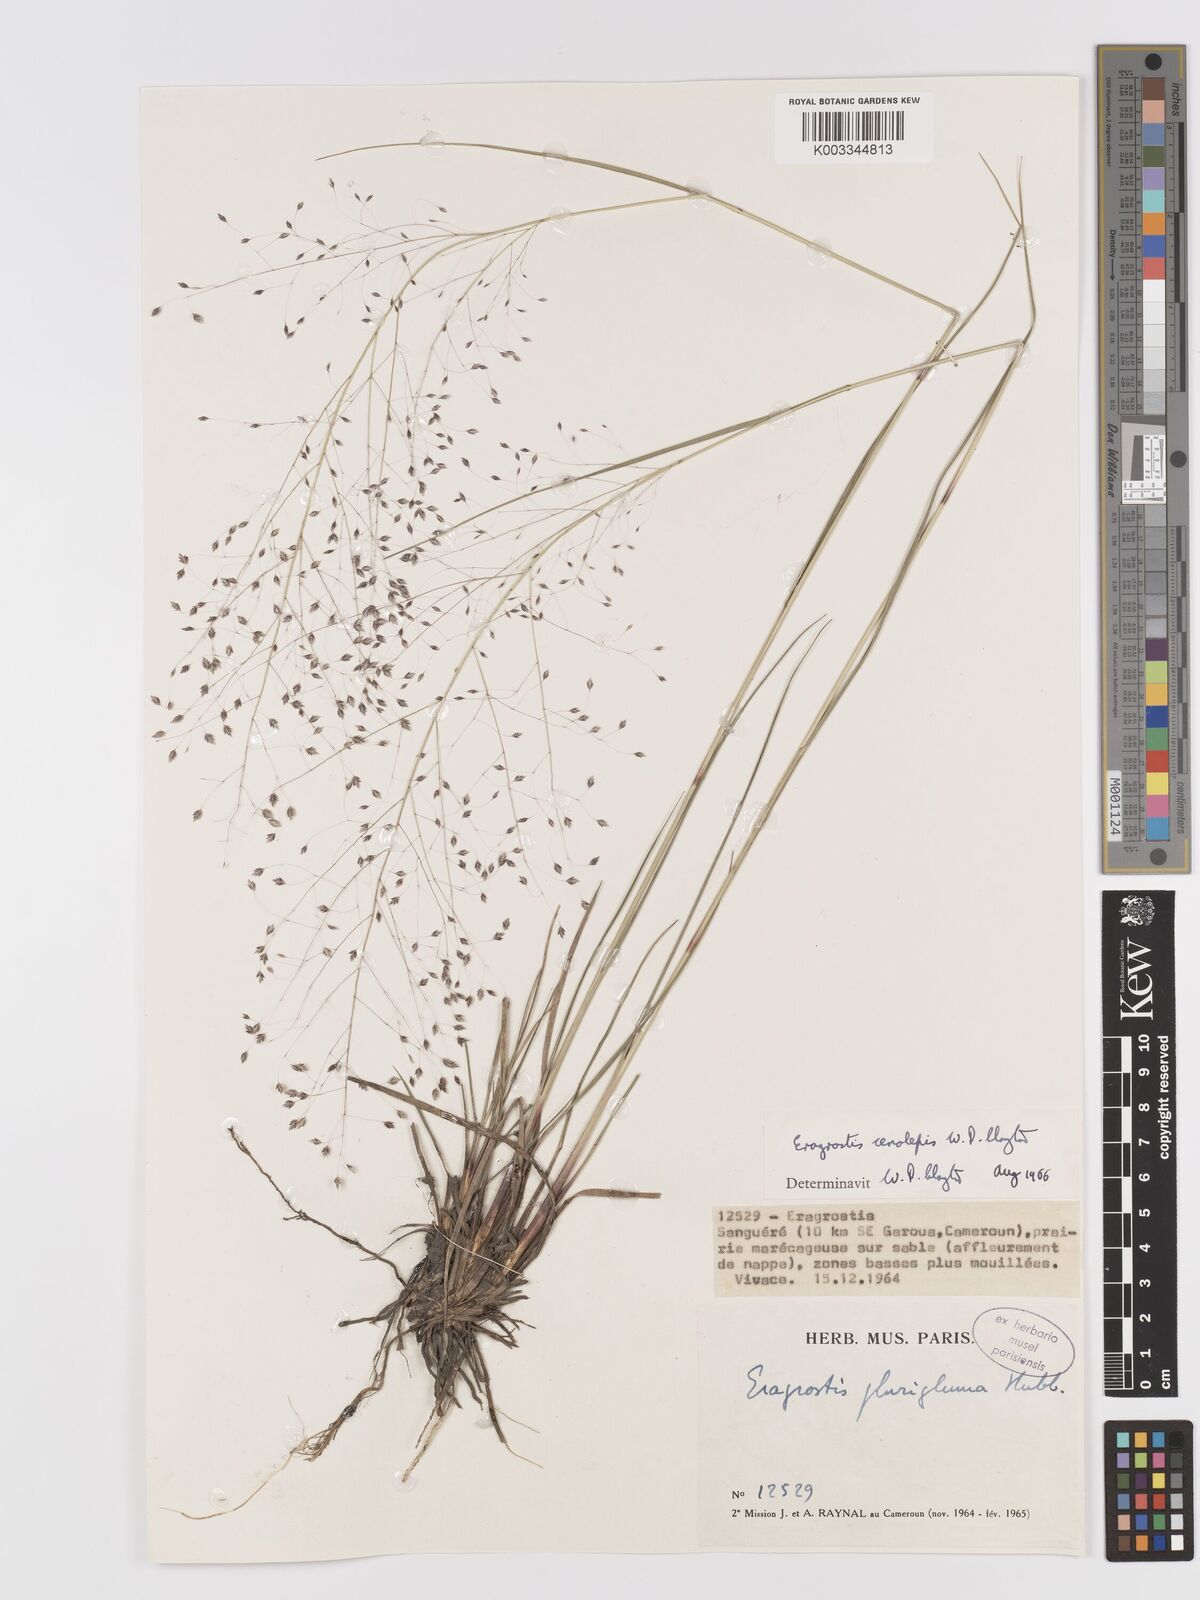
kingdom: Plantae
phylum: Tracheophyta
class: Liliopsida
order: Poales
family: Poaceae
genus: Eragrostis
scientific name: Eragrostis cenolepis
